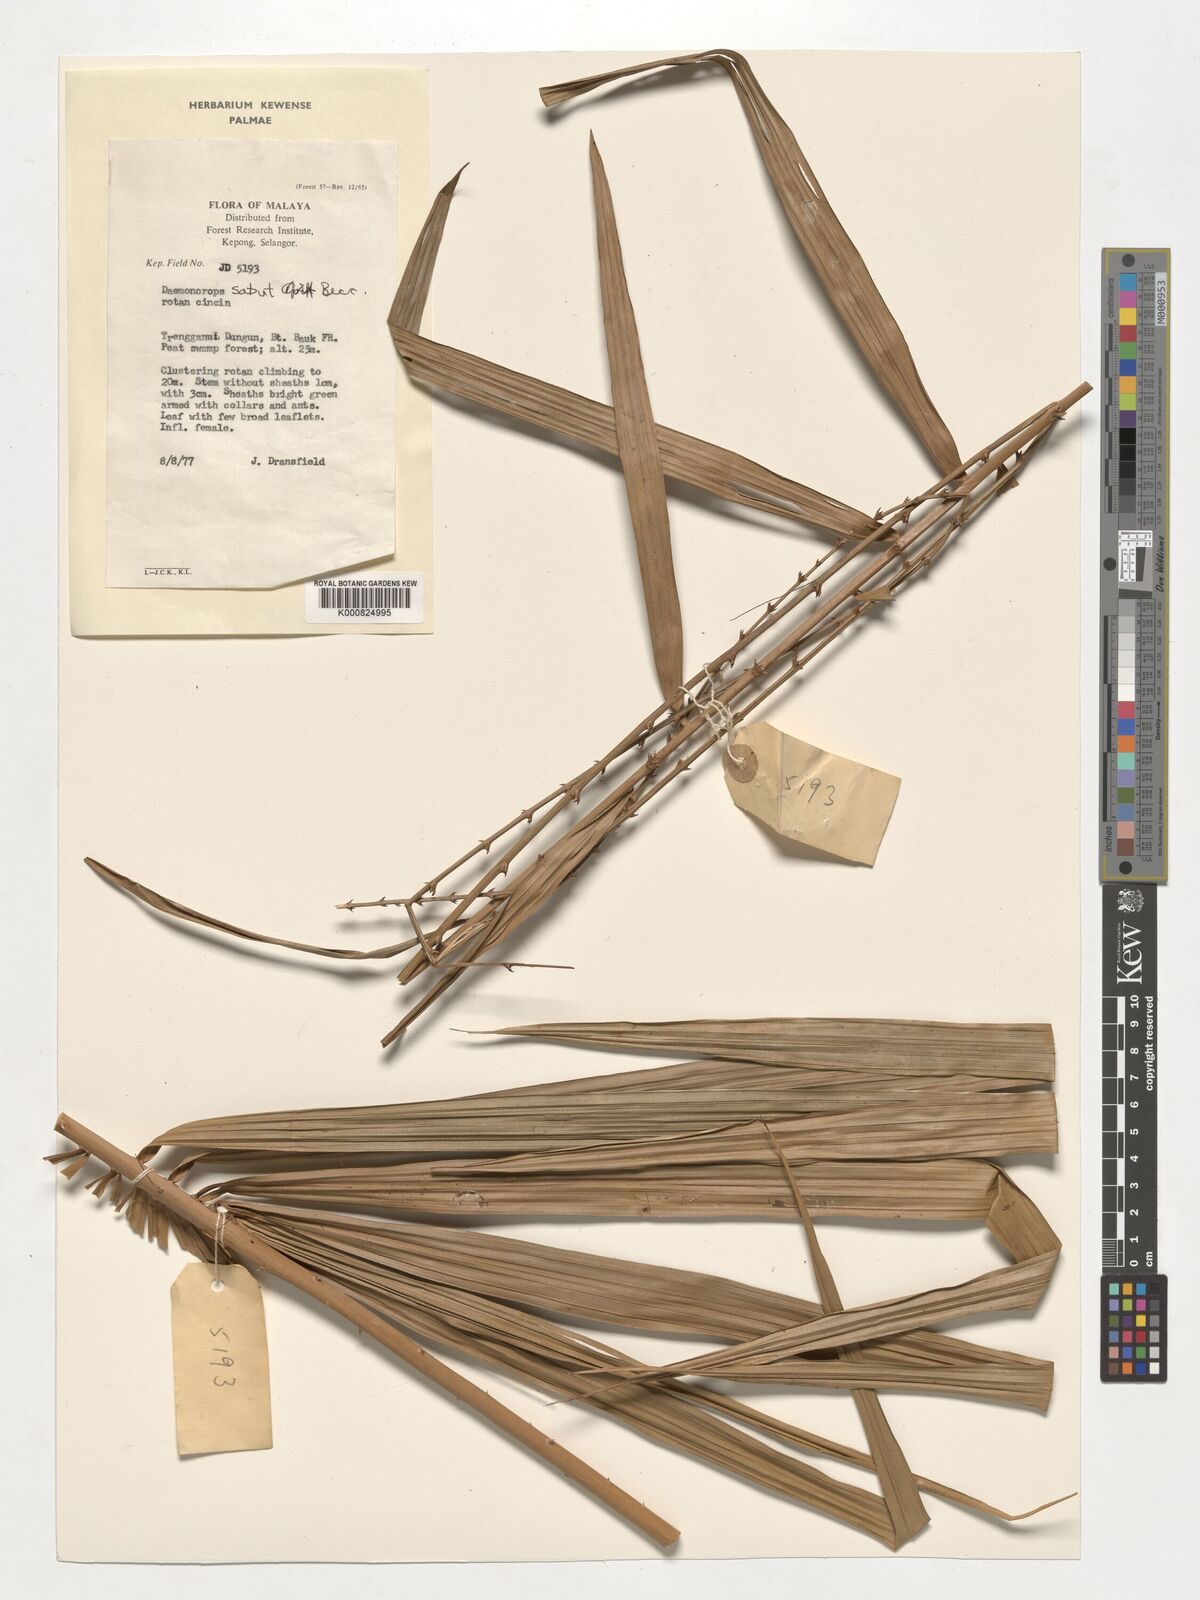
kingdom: Plantae
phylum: Tracheophyta
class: Liliopsida
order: Arecales
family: Arecaceae
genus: Calamus
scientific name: Calamus crinitus
